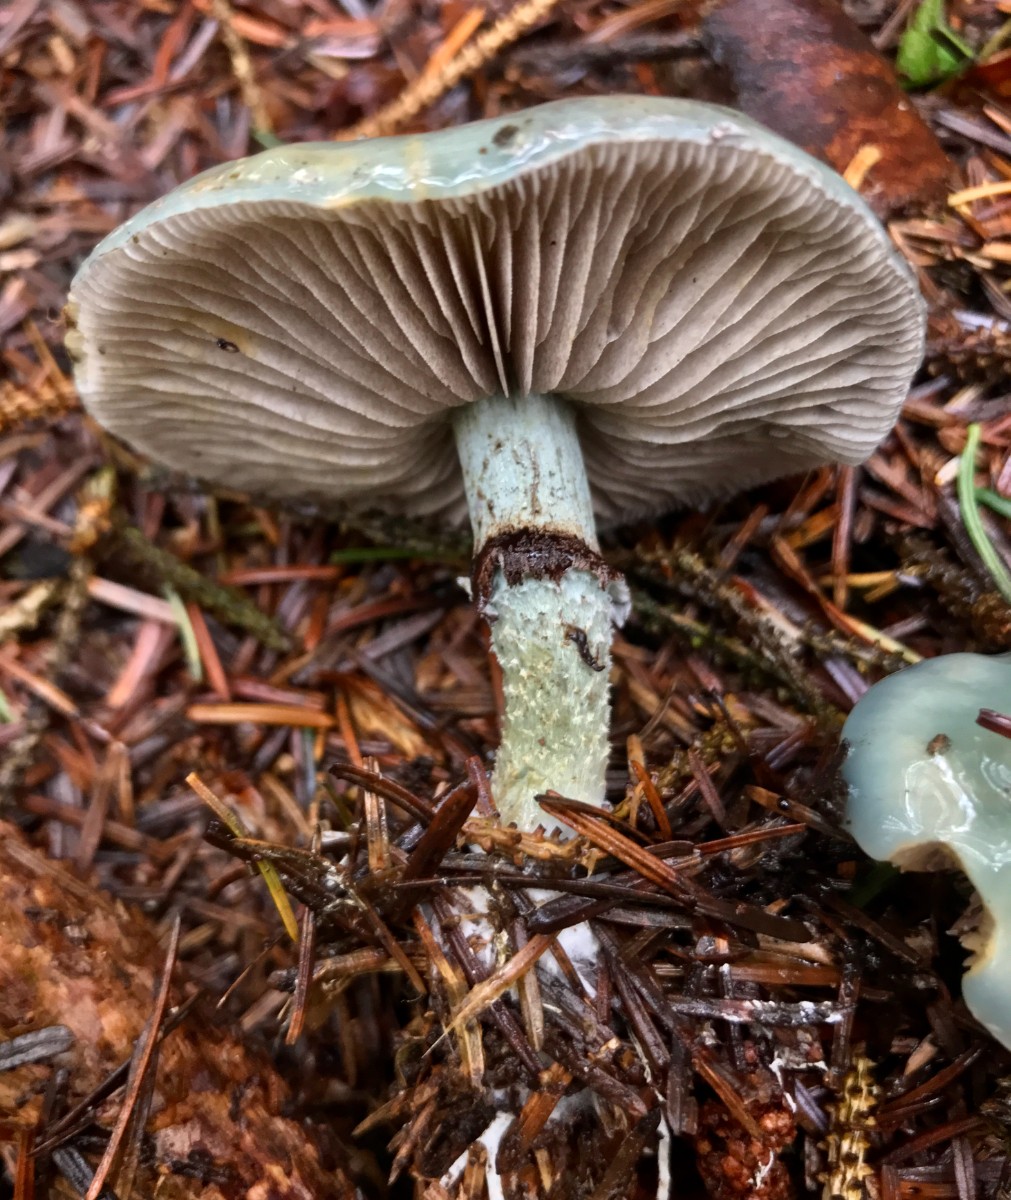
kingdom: Fungi
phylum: Basidiomycota
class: Agaricomycetes
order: Agaricales
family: Strophariaceae
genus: Stropharia
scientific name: Stropharia cyanea
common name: blågrøn bredblad
